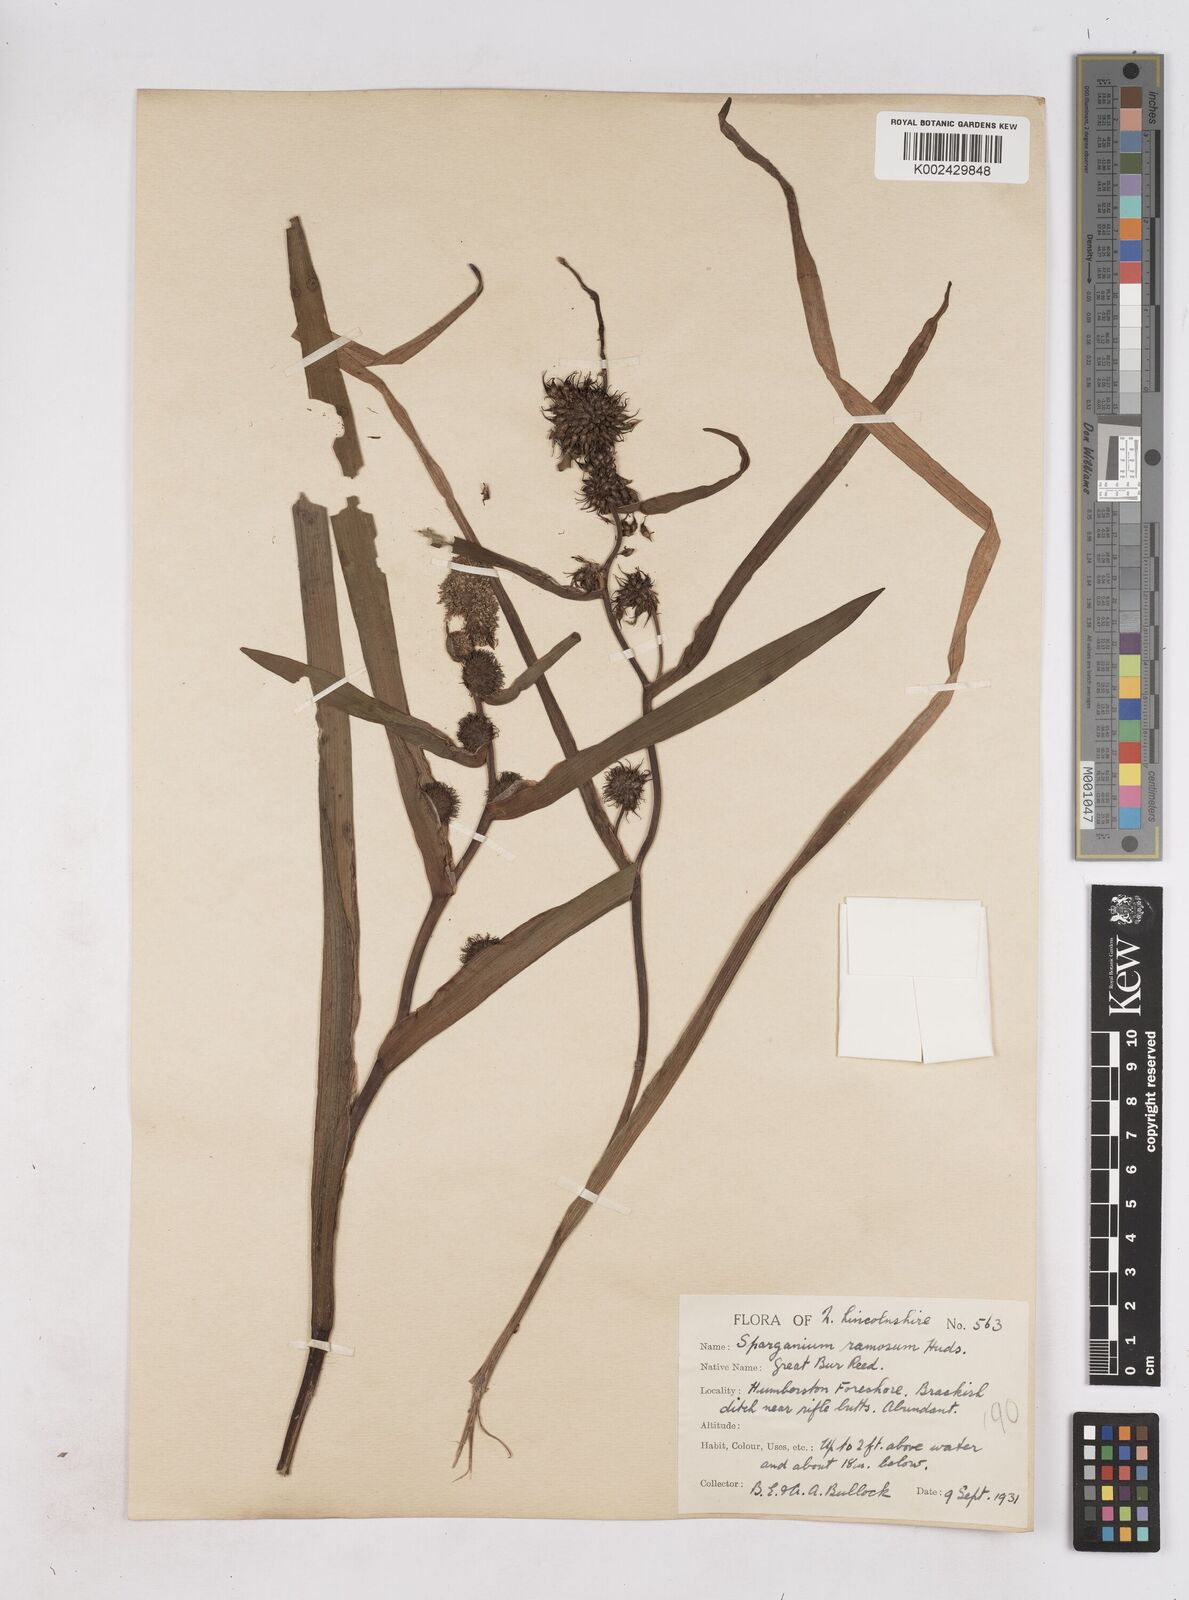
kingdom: Plantae
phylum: Tracheophyta
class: Liliopsida
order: Poales
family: Typhaceae
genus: Sparganium
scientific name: Sparganium erectum
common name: Branched bur-reed
